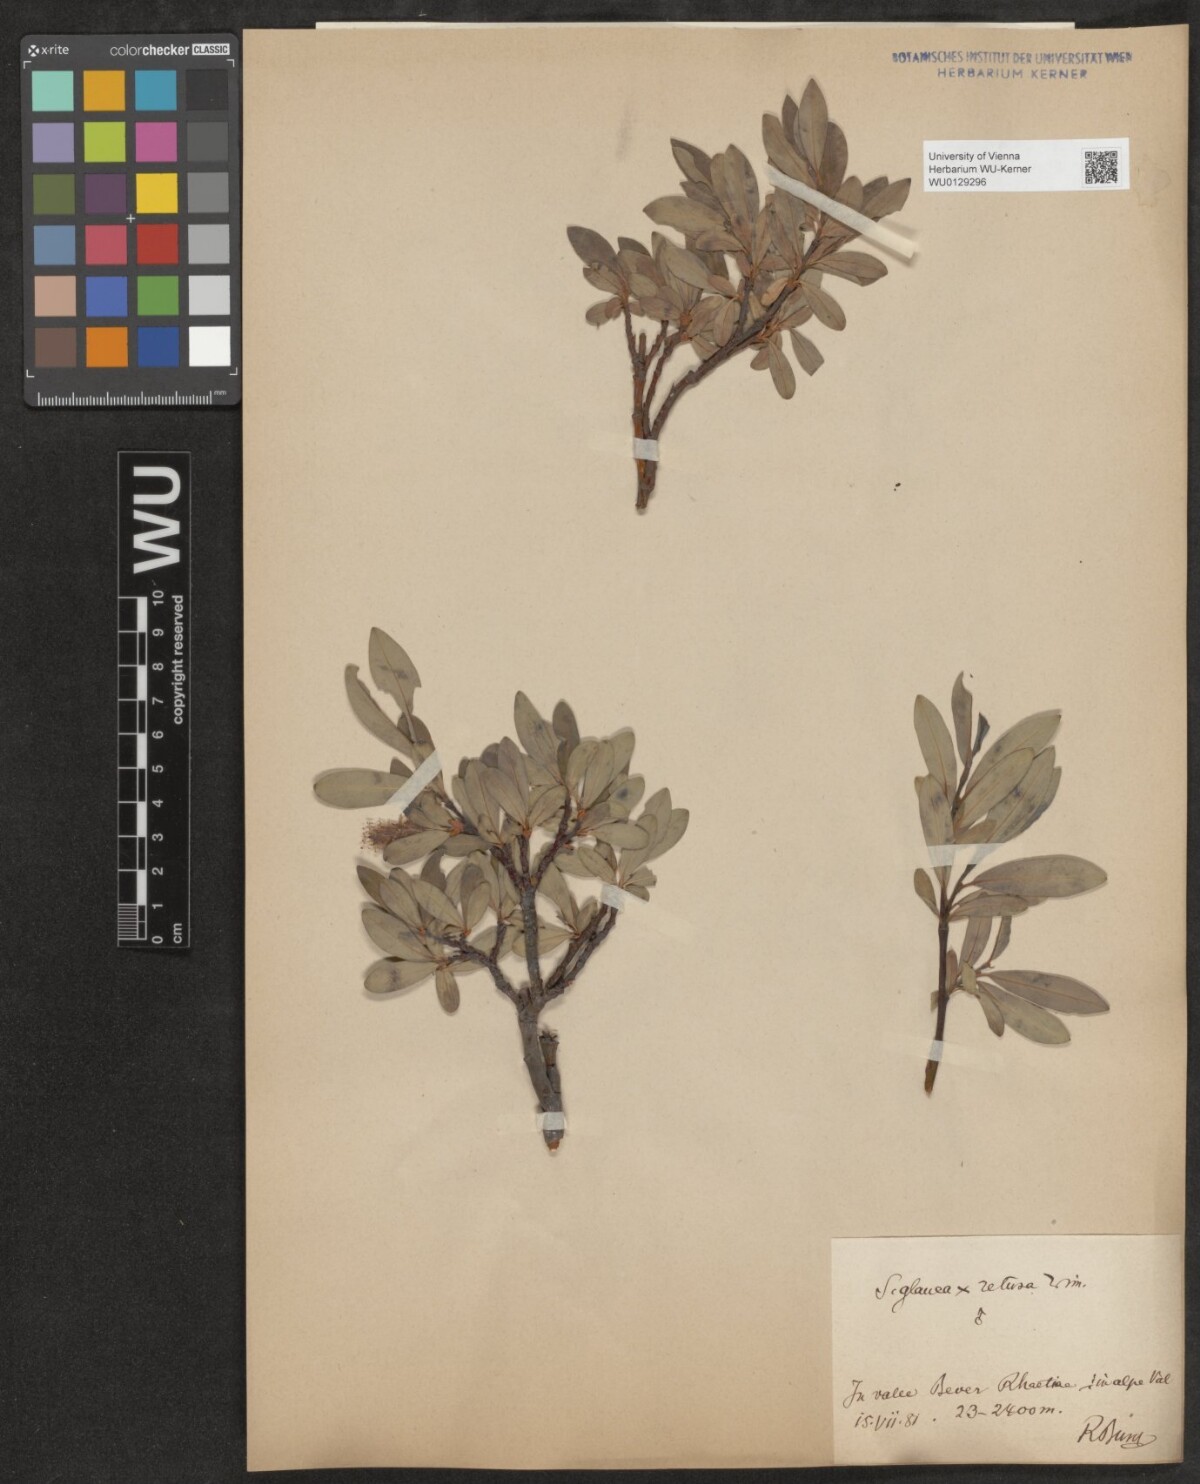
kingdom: Plantae
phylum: Tracheophyta
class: Magnoliopsida
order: Malpighiales
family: Salicaceae
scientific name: Salicaceae
